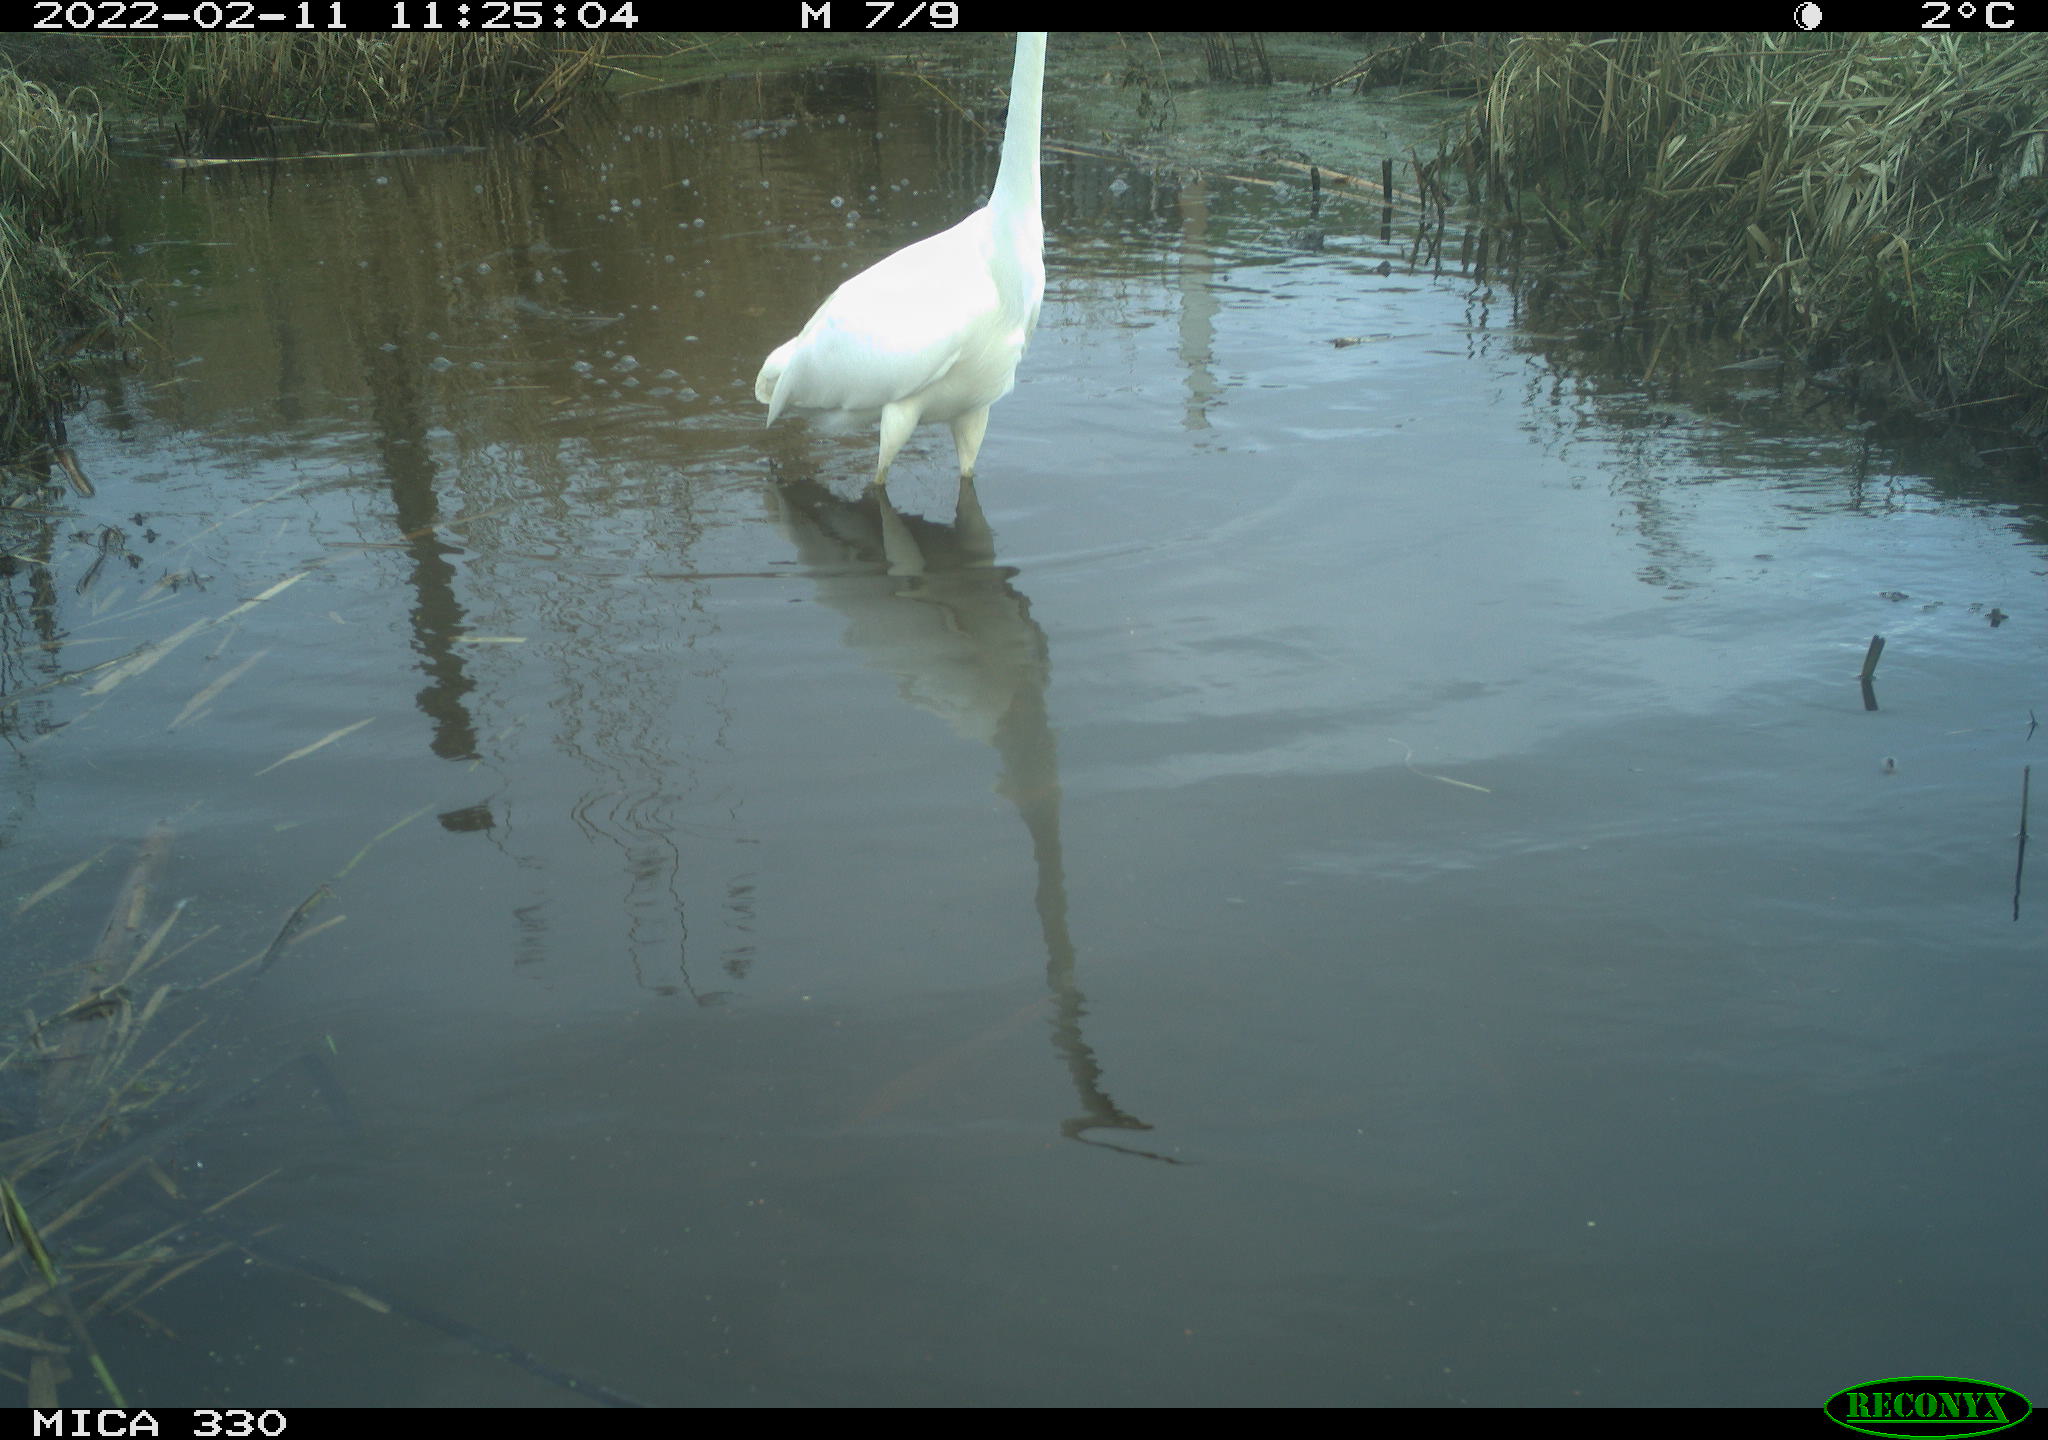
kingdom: Animalia
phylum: Chordata
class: Aves
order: Pelecaniformes
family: Ardeidae
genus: Ardea
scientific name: Ardea alba
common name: Great egret
